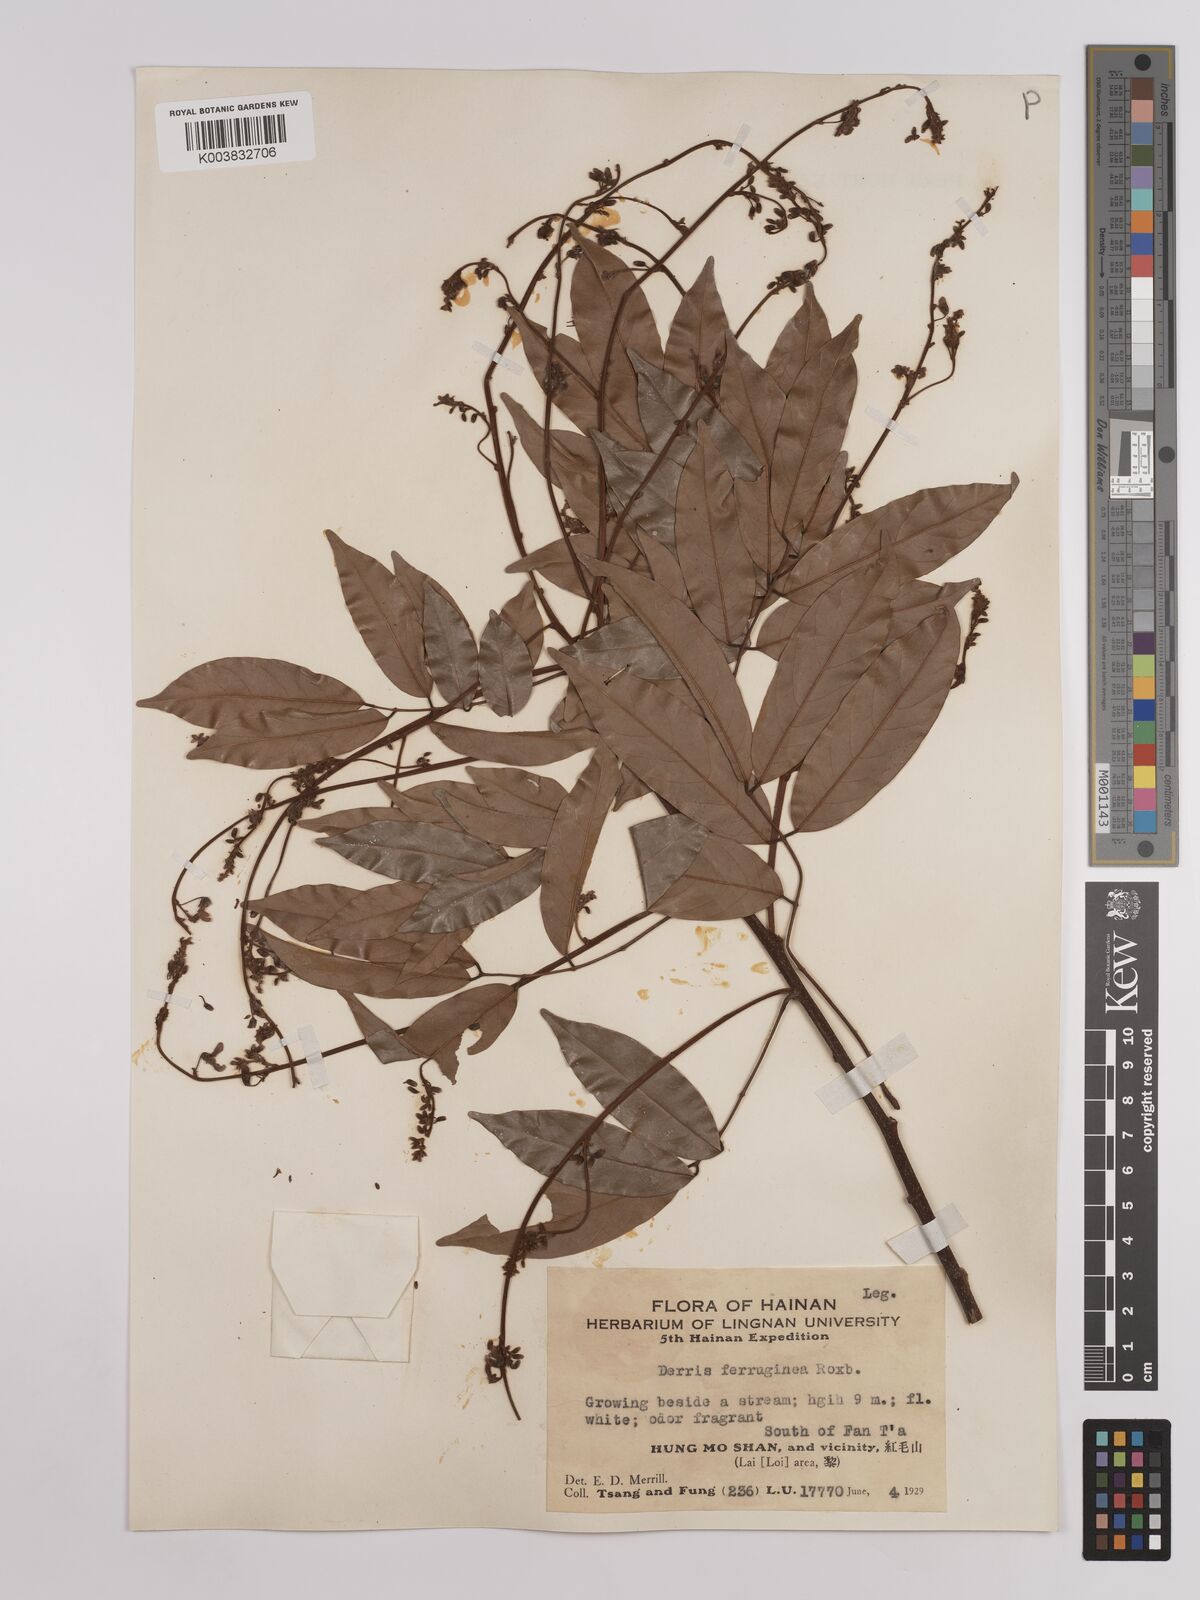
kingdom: Plantae
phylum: Tracheophyta
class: Magnoliopsida
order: Fabales
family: Fabaceae
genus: Derris
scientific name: Derris ferruginea
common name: Indian tubaroot
